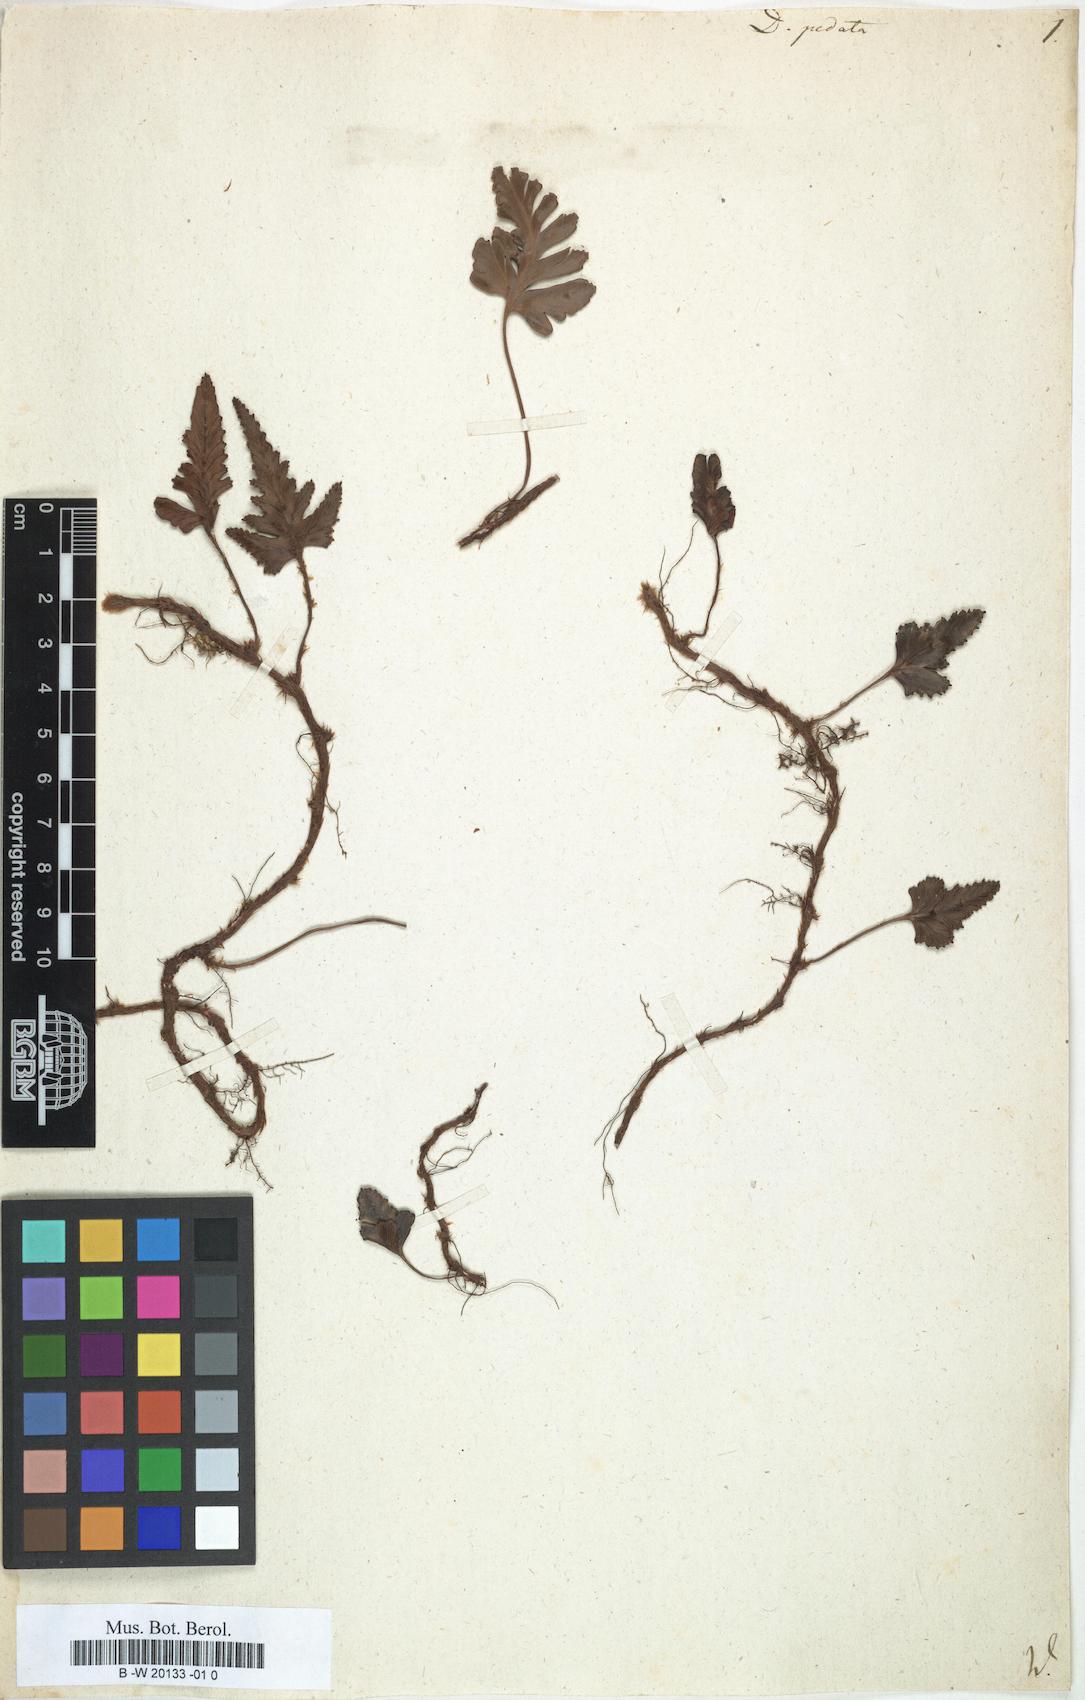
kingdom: Plantae
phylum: Tracheophyta
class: Polypodiopsida
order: Polypodiales
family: Davalliaceae
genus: Davallia
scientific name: Davallia repens
